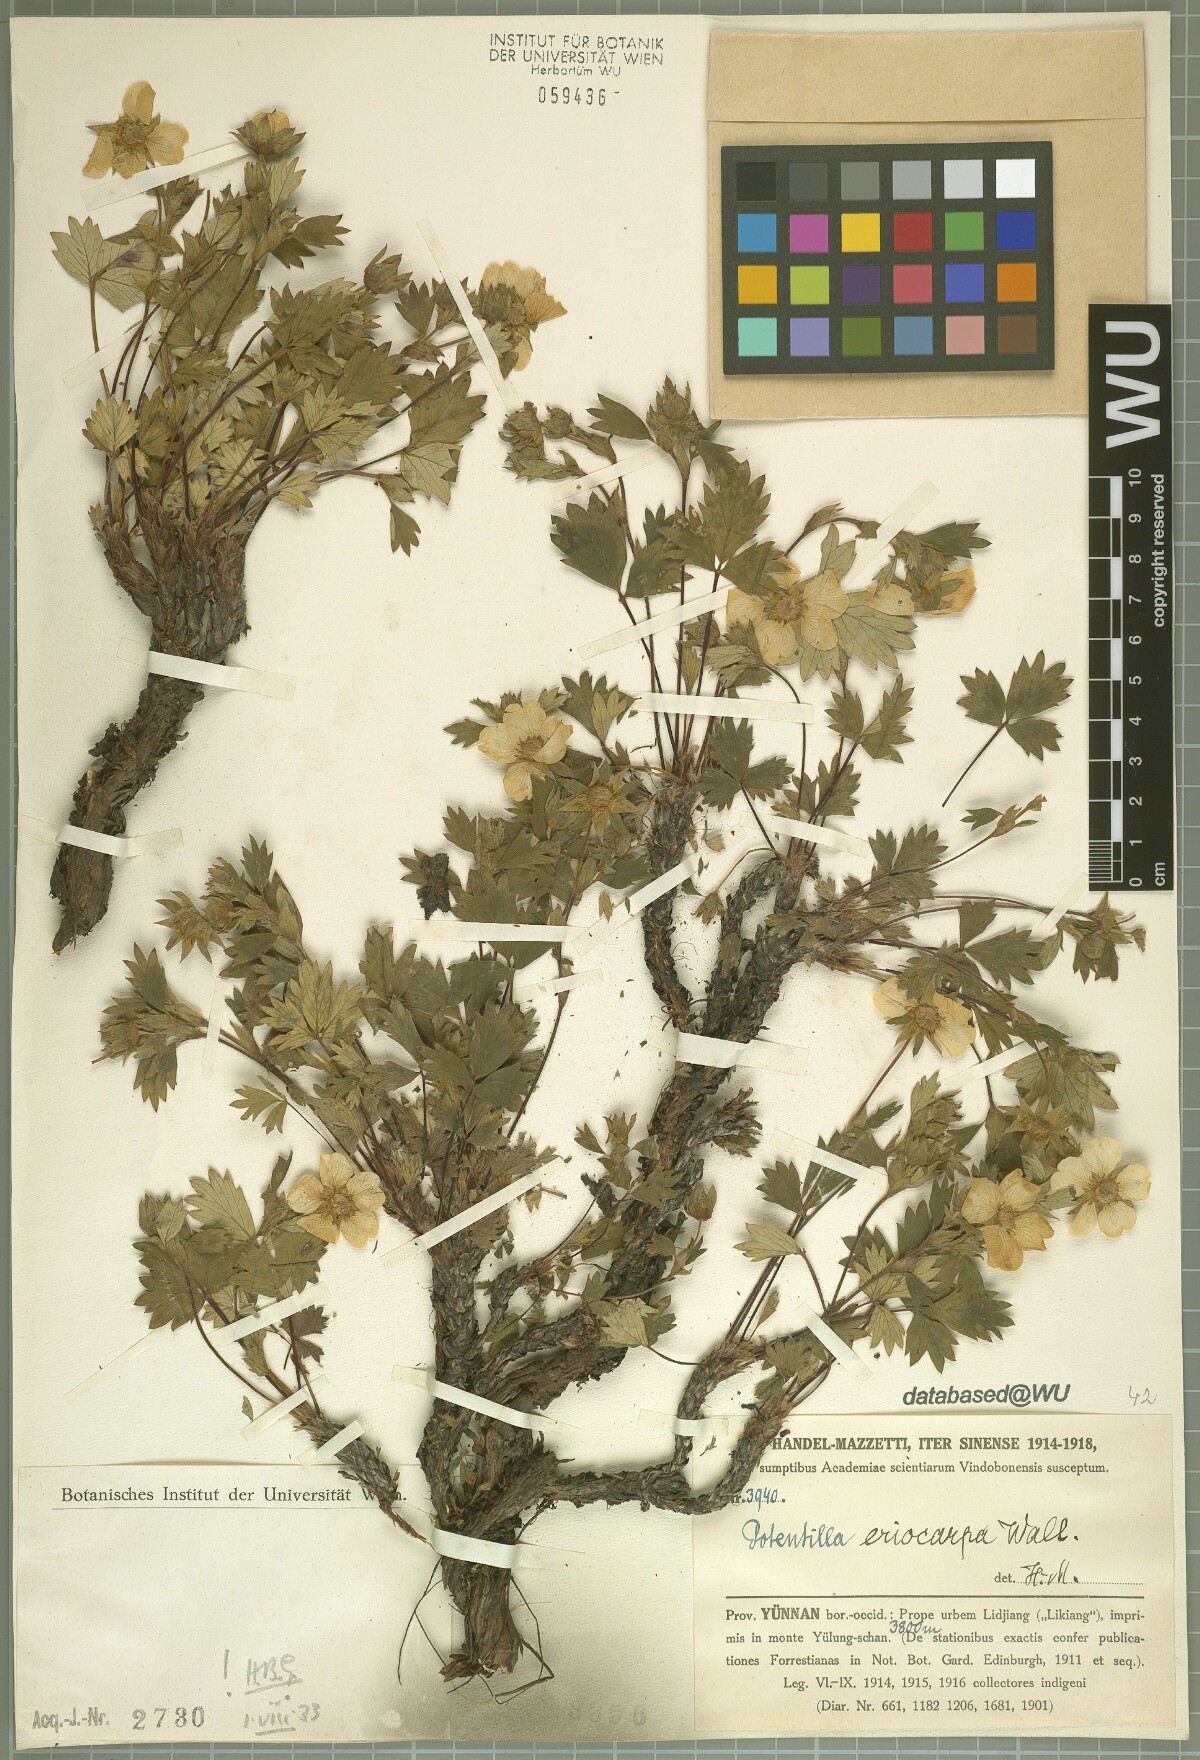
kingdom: Plantae
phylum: Tracheophyta
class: Magnoliopsida
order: Rosales
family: Rosaceae
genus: Potentilla
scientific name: Potentilla eriocarpa
